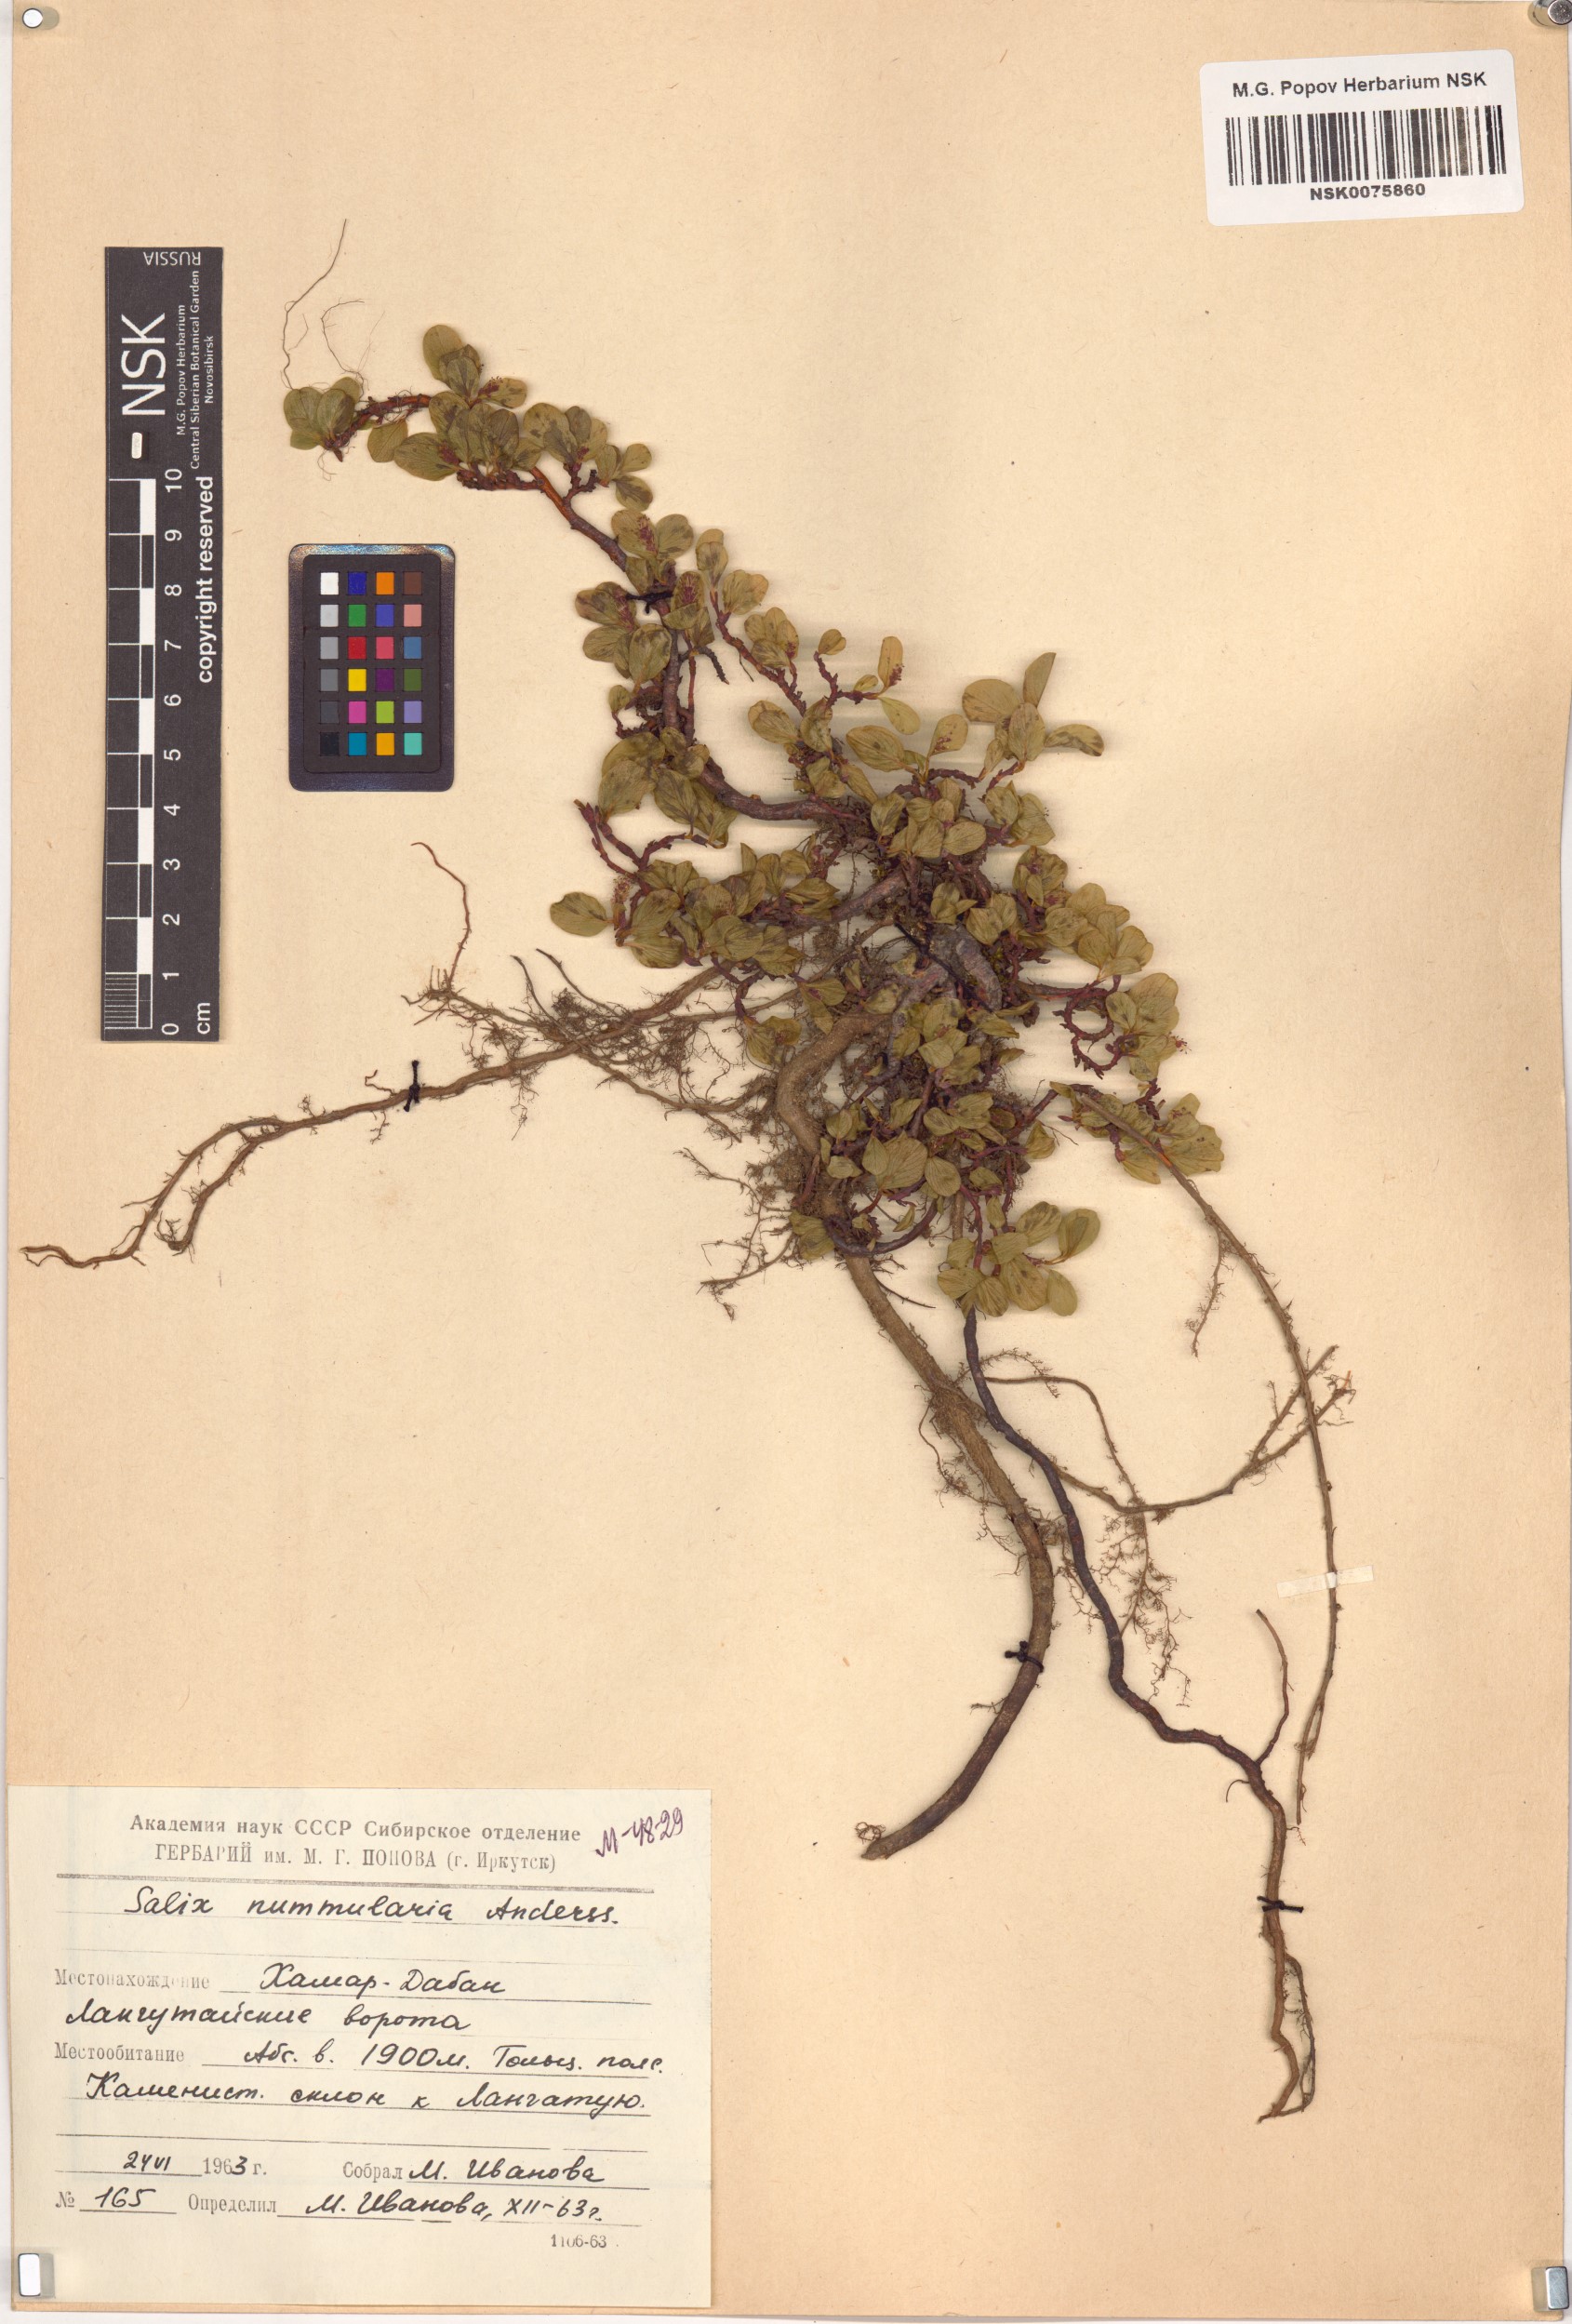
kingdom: Plantae
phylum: Tracheophyta
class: Magnoliopsida
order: Malpighiales
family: Salicaceae
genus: Salix
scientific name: Salix nummularia
